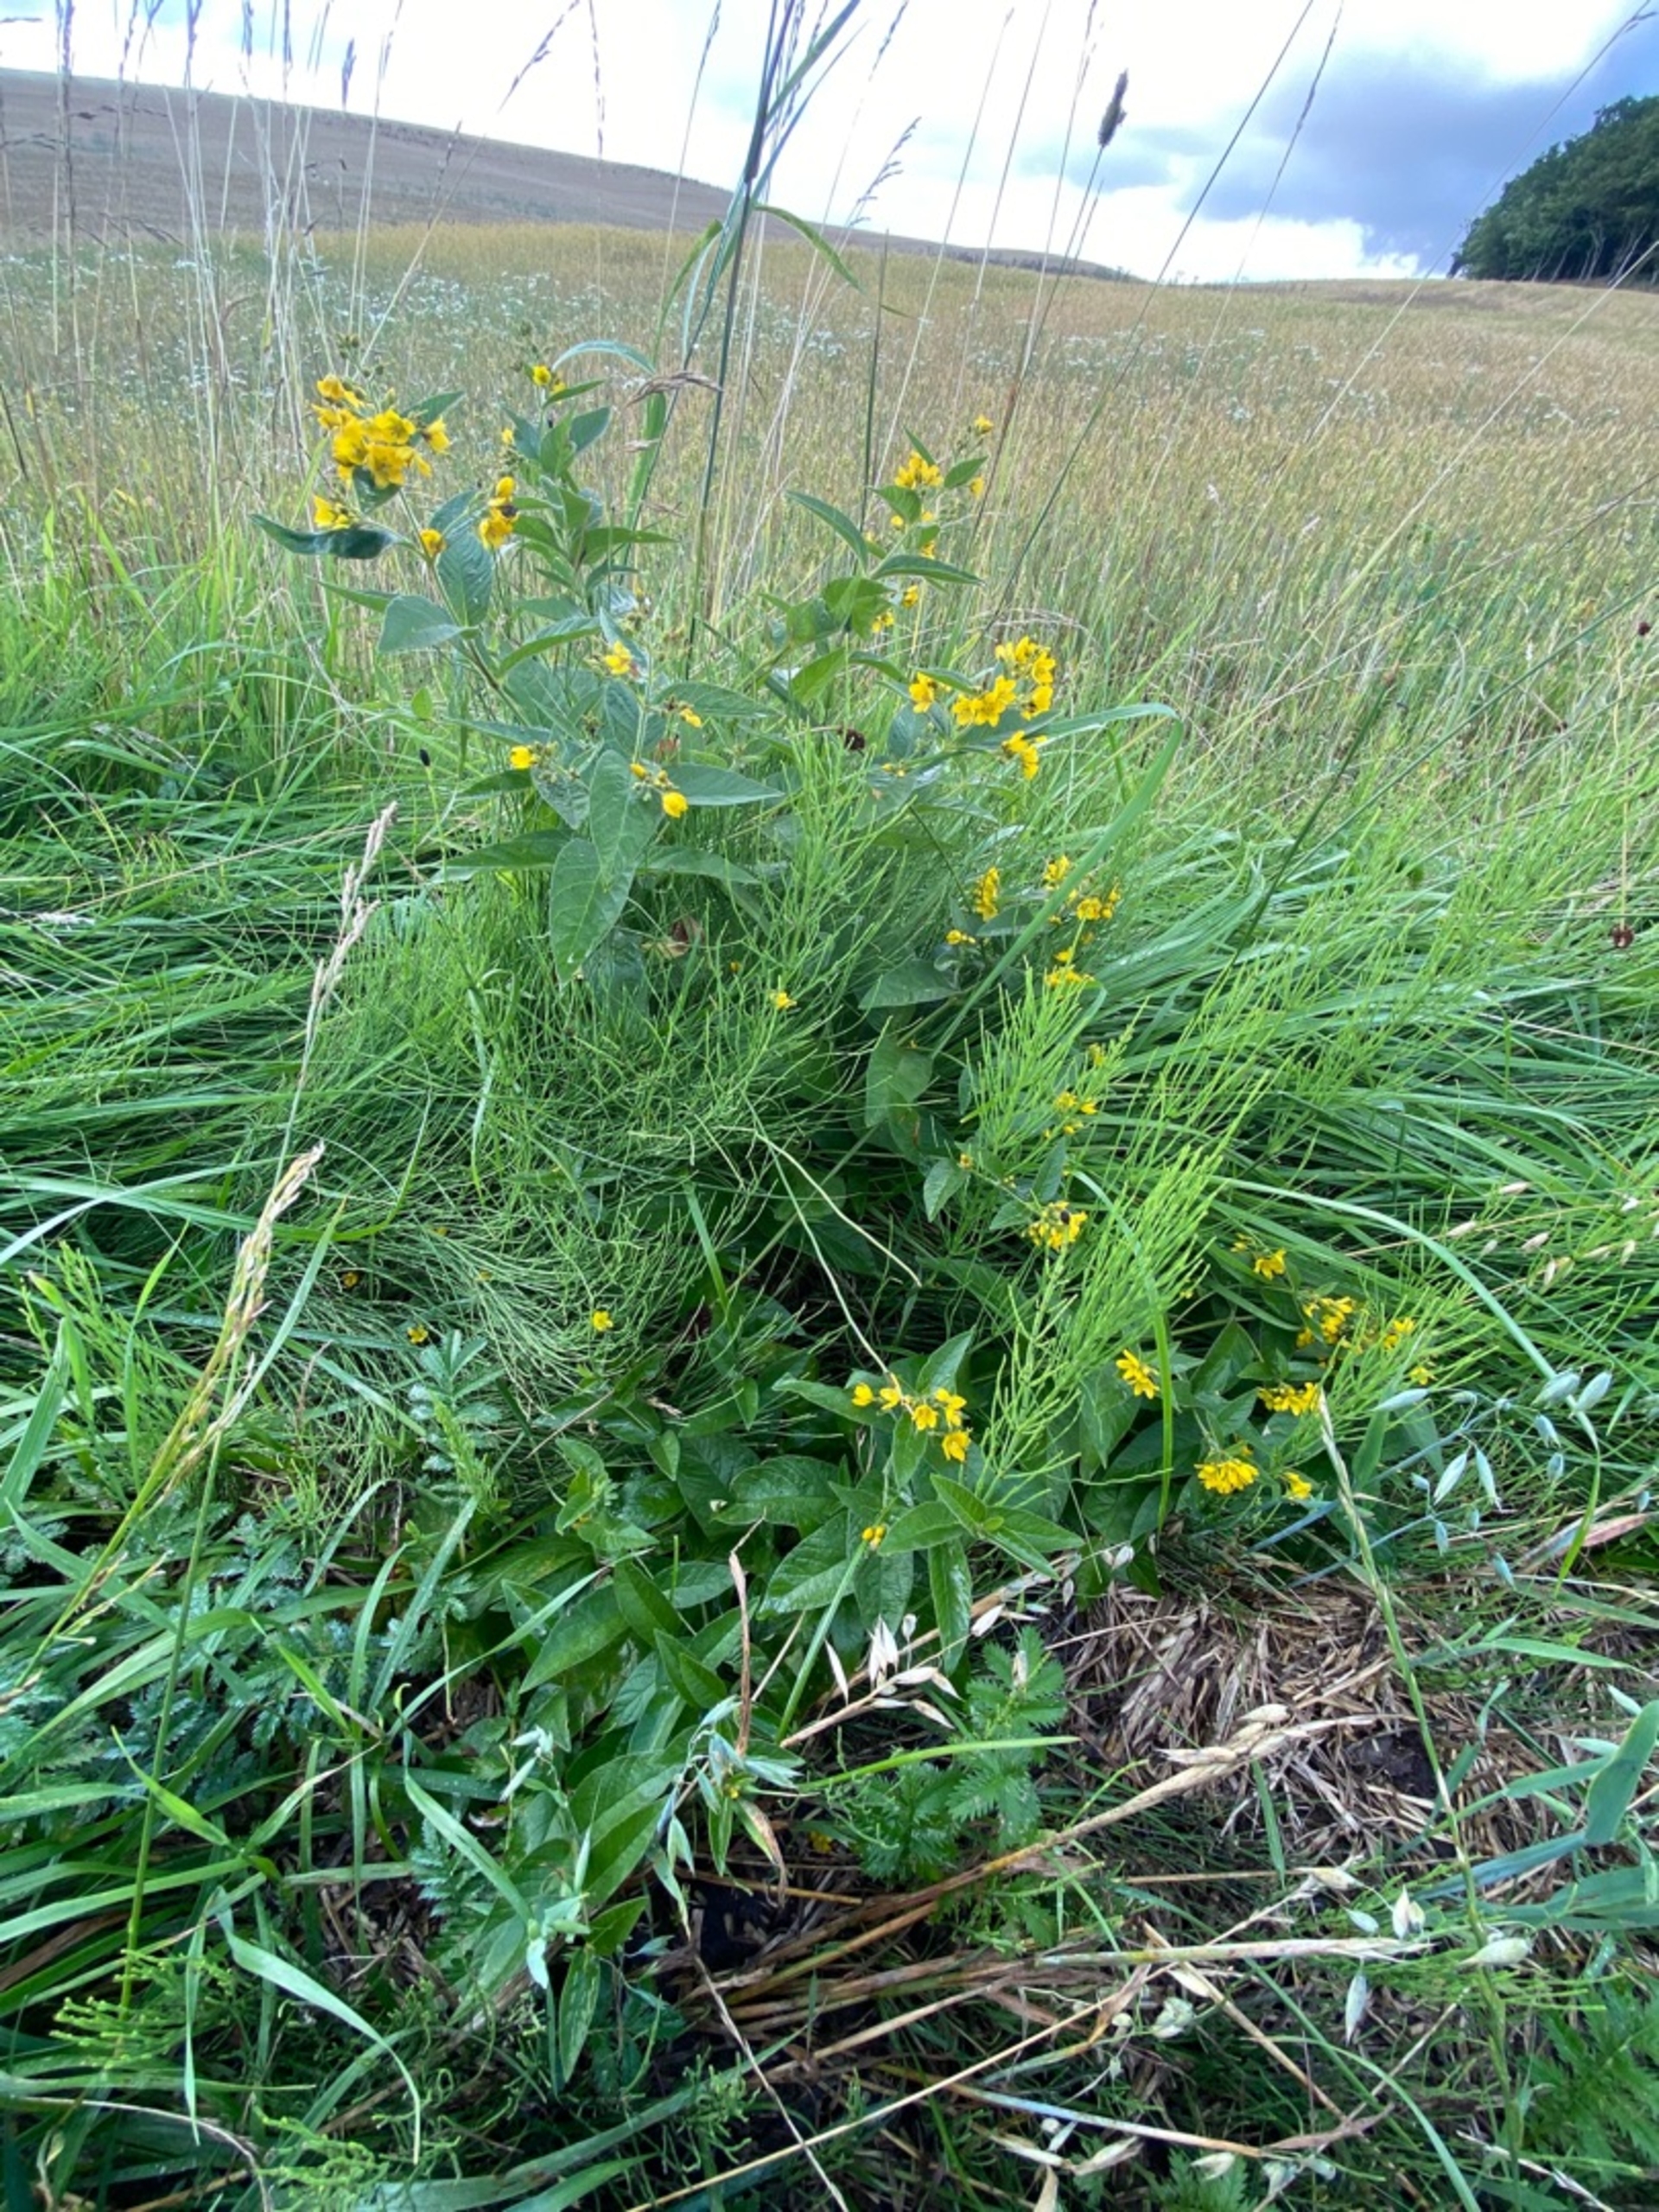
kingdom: Plantae
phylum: Tracheophyta
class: Magnoliopsida
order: Ericales
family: Primulaceae
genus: Lysimachia
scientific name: Lysimachia vulgaris
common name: Almindelig fredløs
